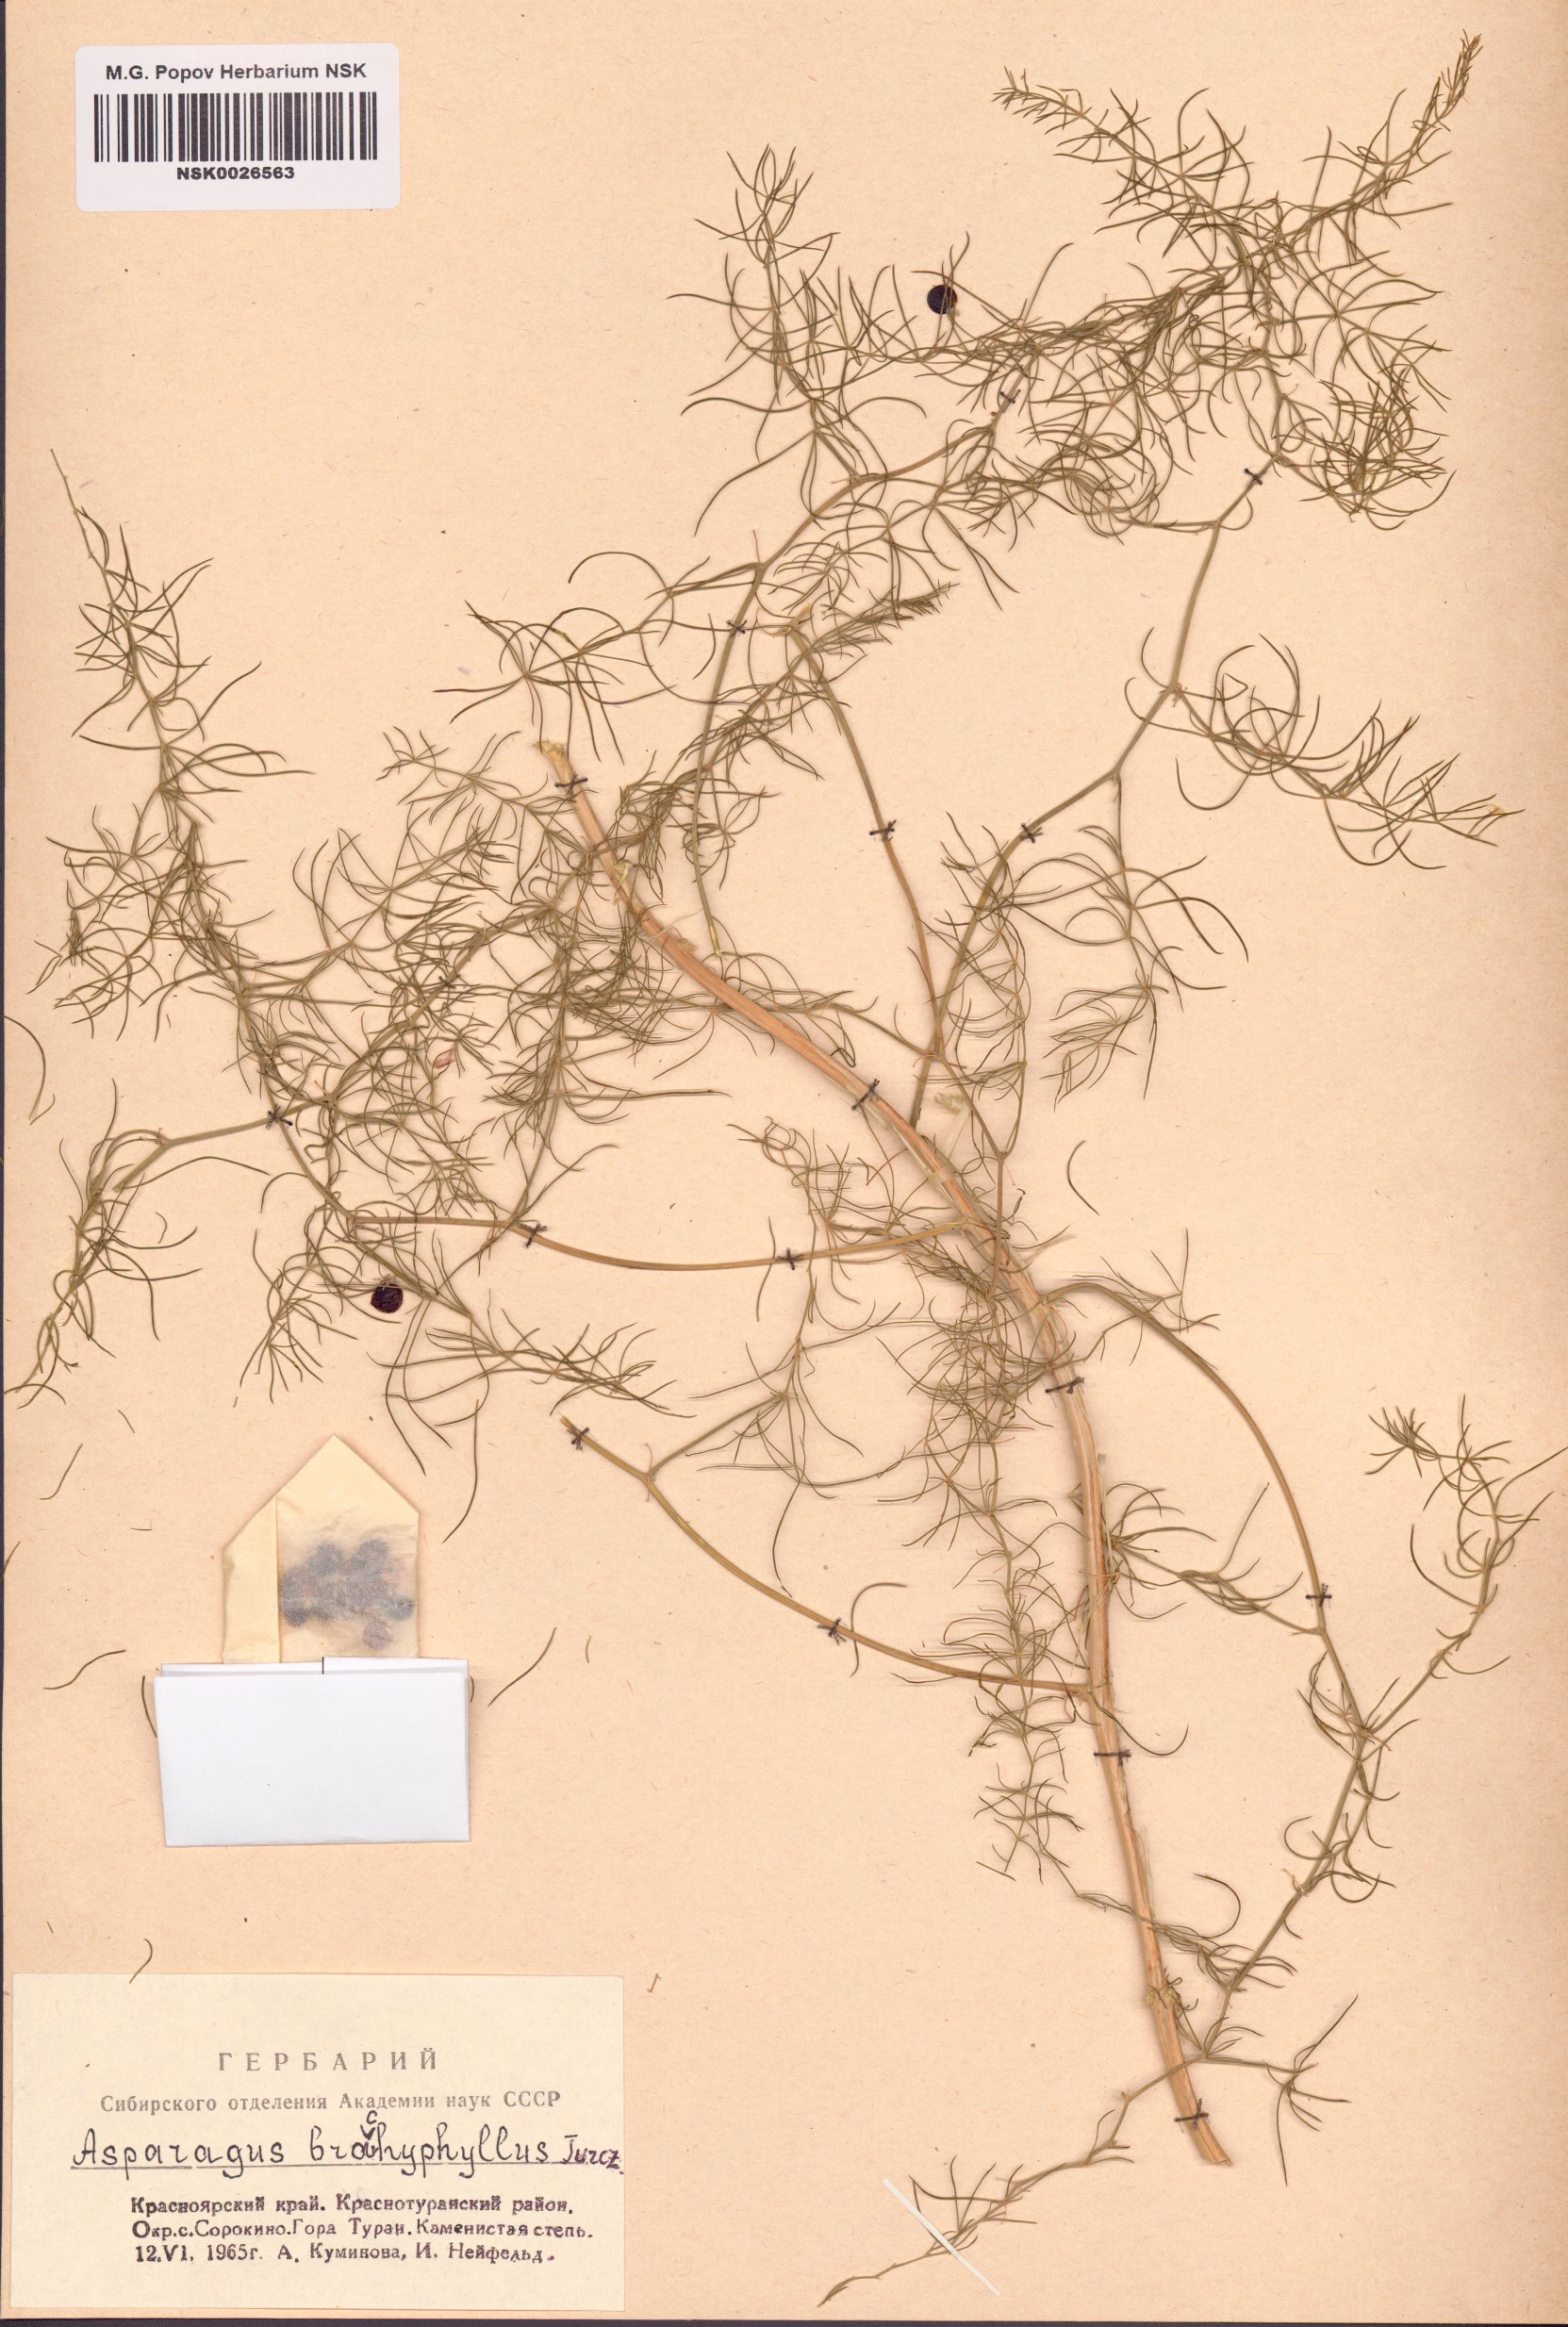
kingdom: Plantae
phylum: Tracheophyta
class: Liliopsida
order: Asparagales
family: Asparagaceae
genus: Asparagus
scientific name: Asparagus brachyphyllus
